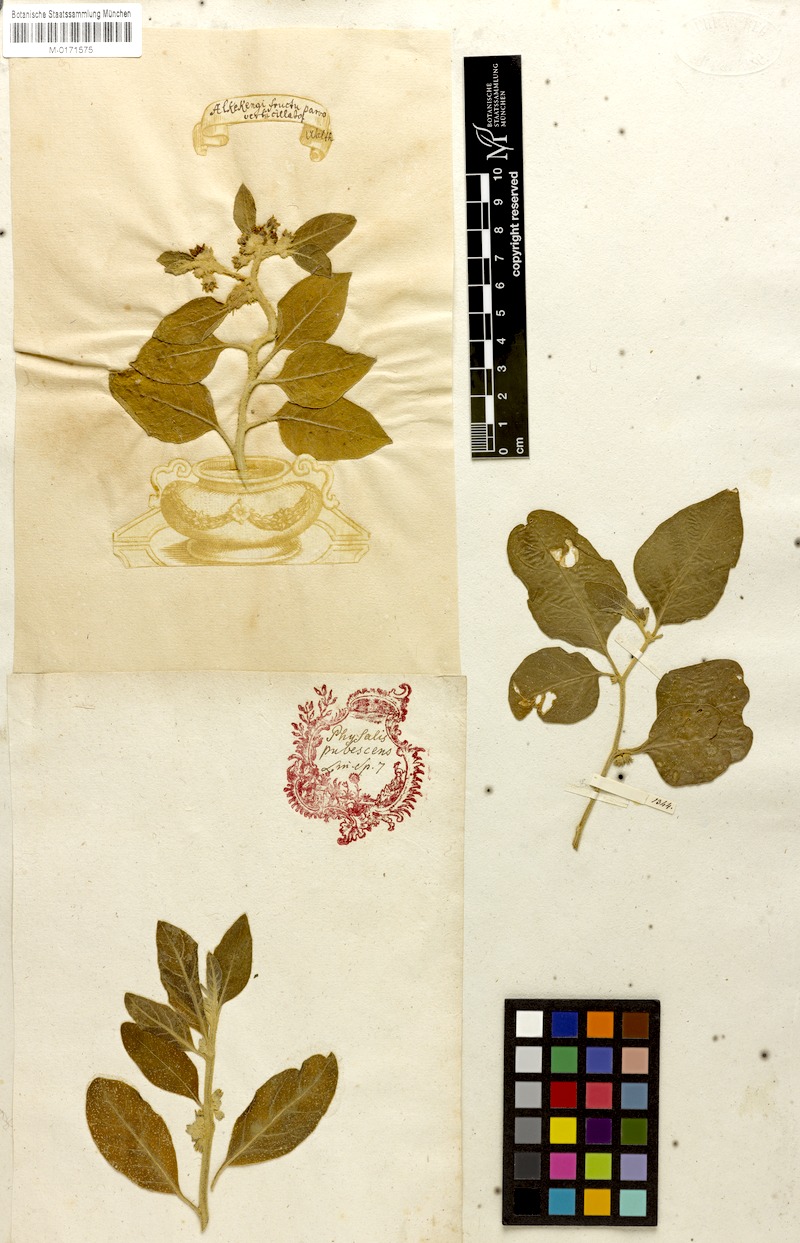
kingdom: Plantae
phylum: Tracheophyta
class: Magnoliopsida
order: Solanales
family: Solanaceae
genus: Withania
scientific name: Withania somnifera
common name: Winter-cherry
